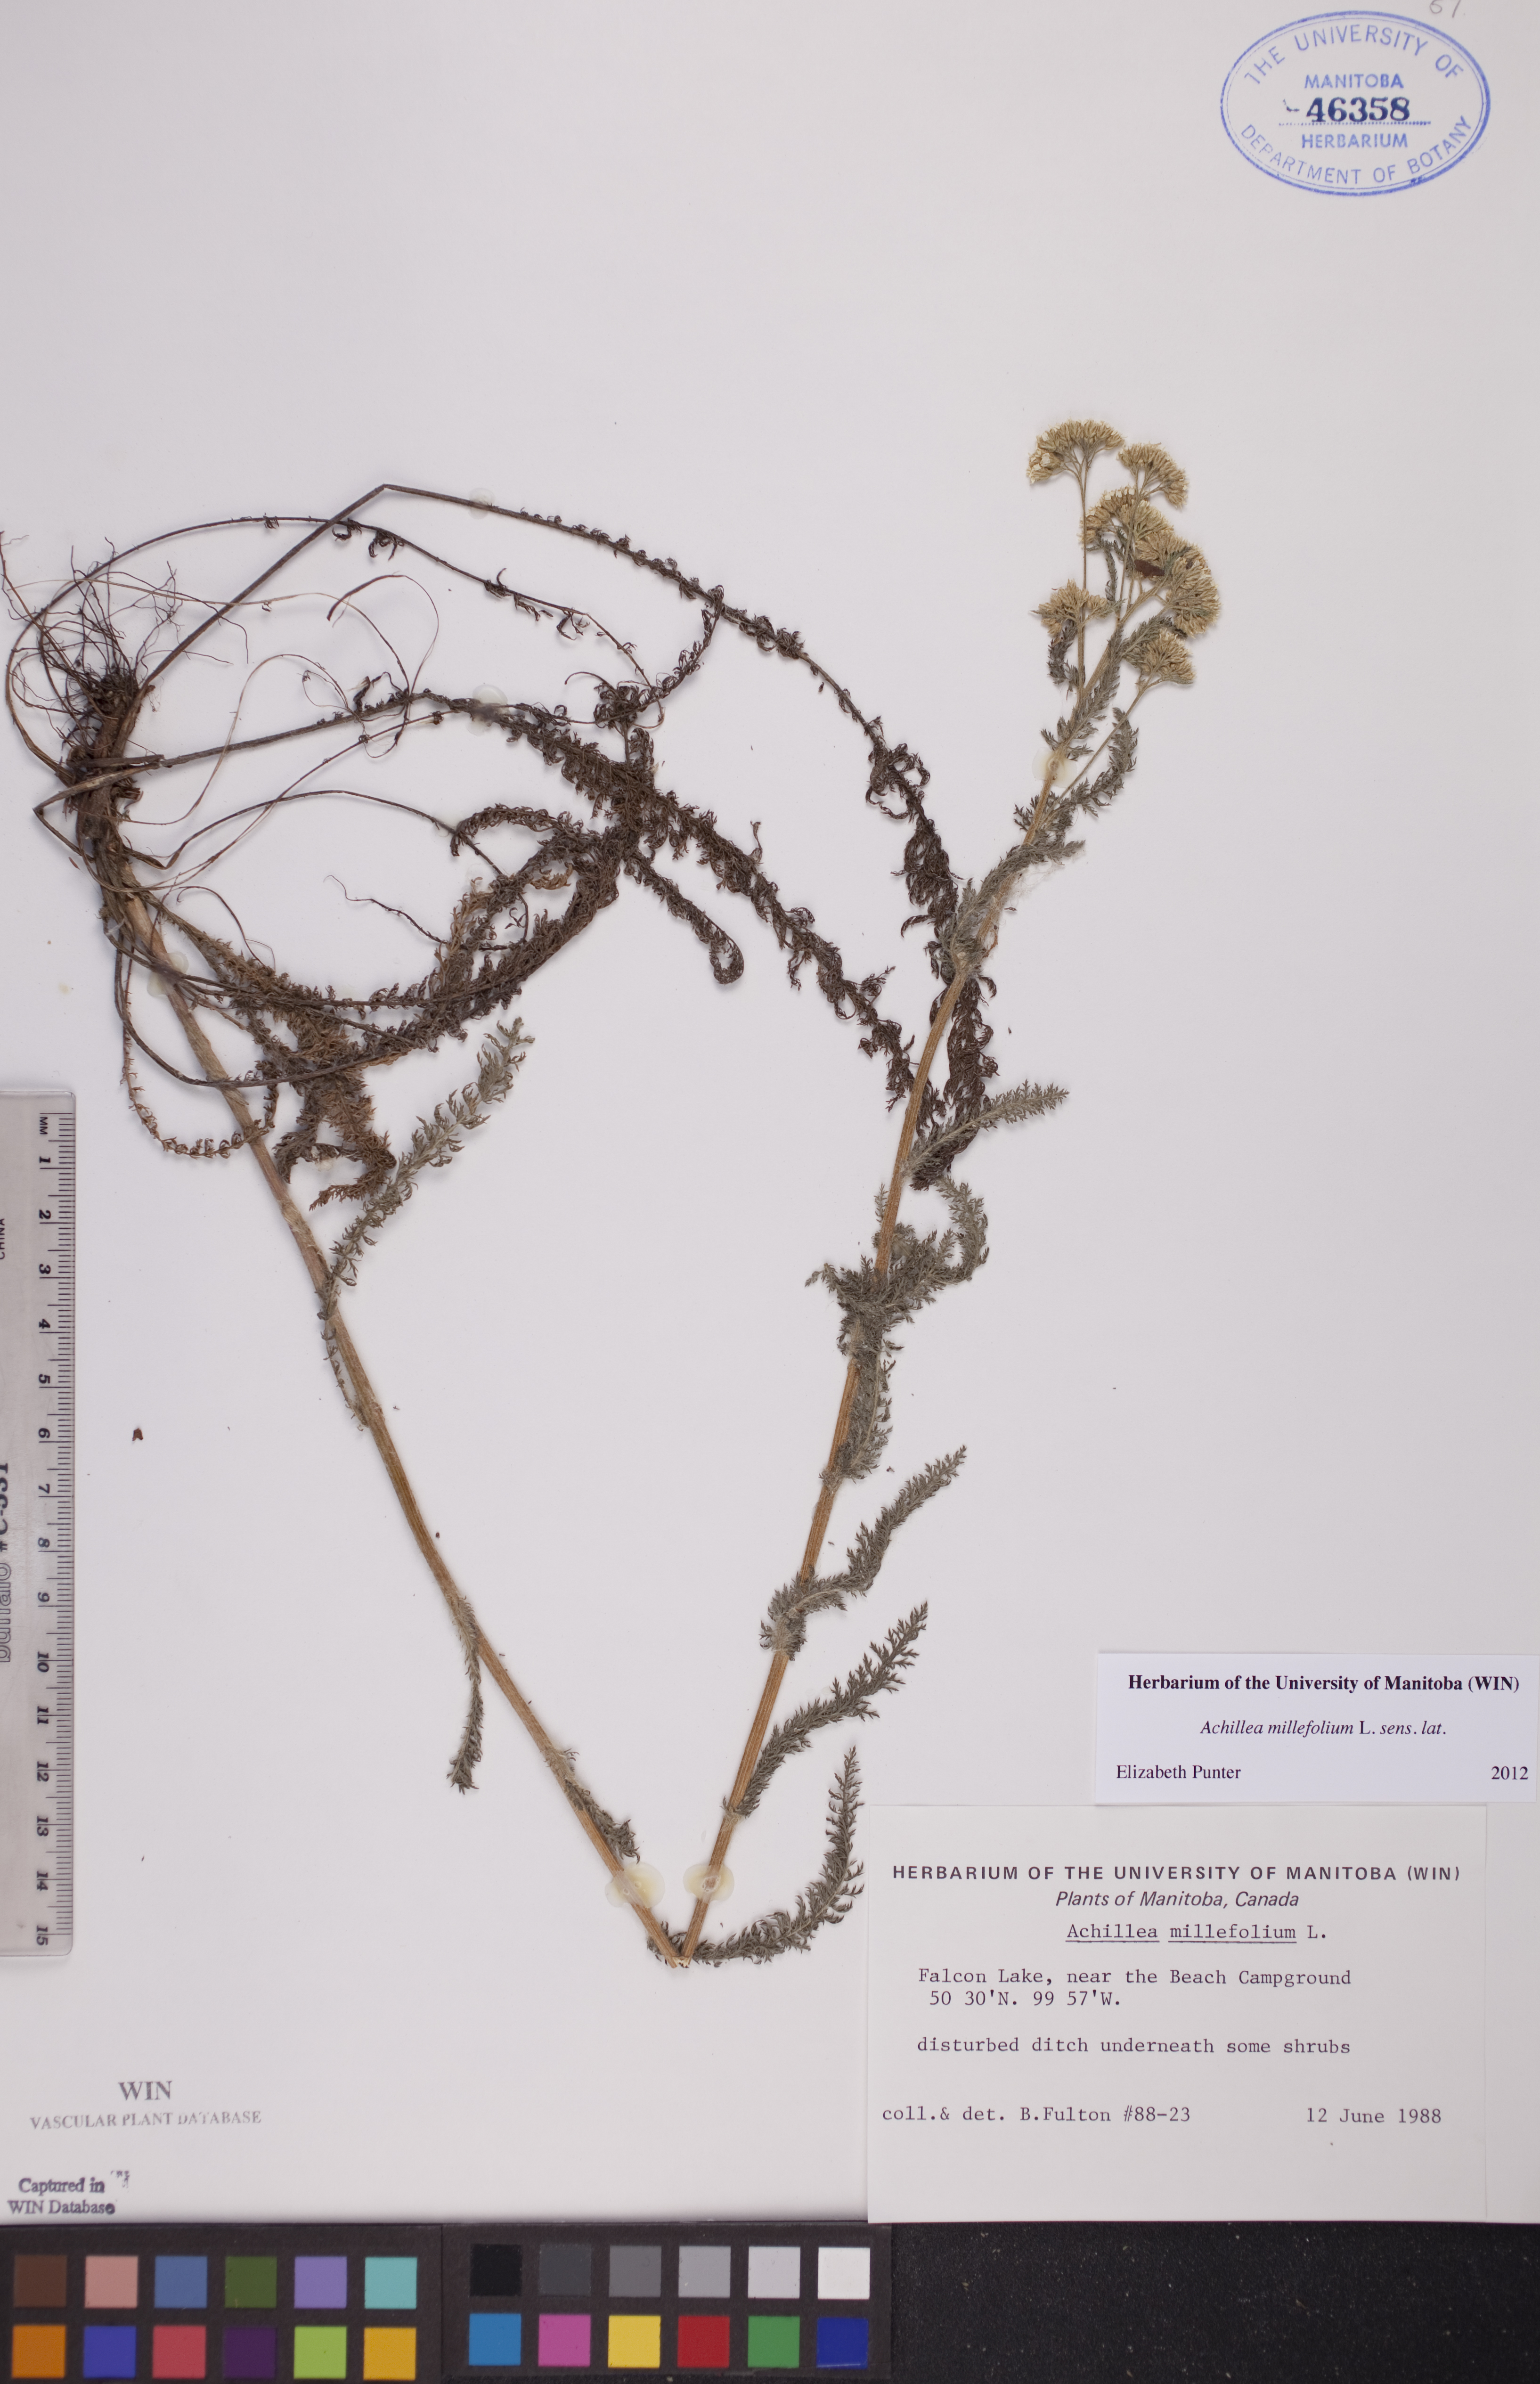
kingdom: Plantae
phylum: Tracheophyta
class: Magnoliopsida
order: Asterales
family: Asteraceae
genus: Achillea
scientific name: Achillea millefolium
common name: Yarrow
